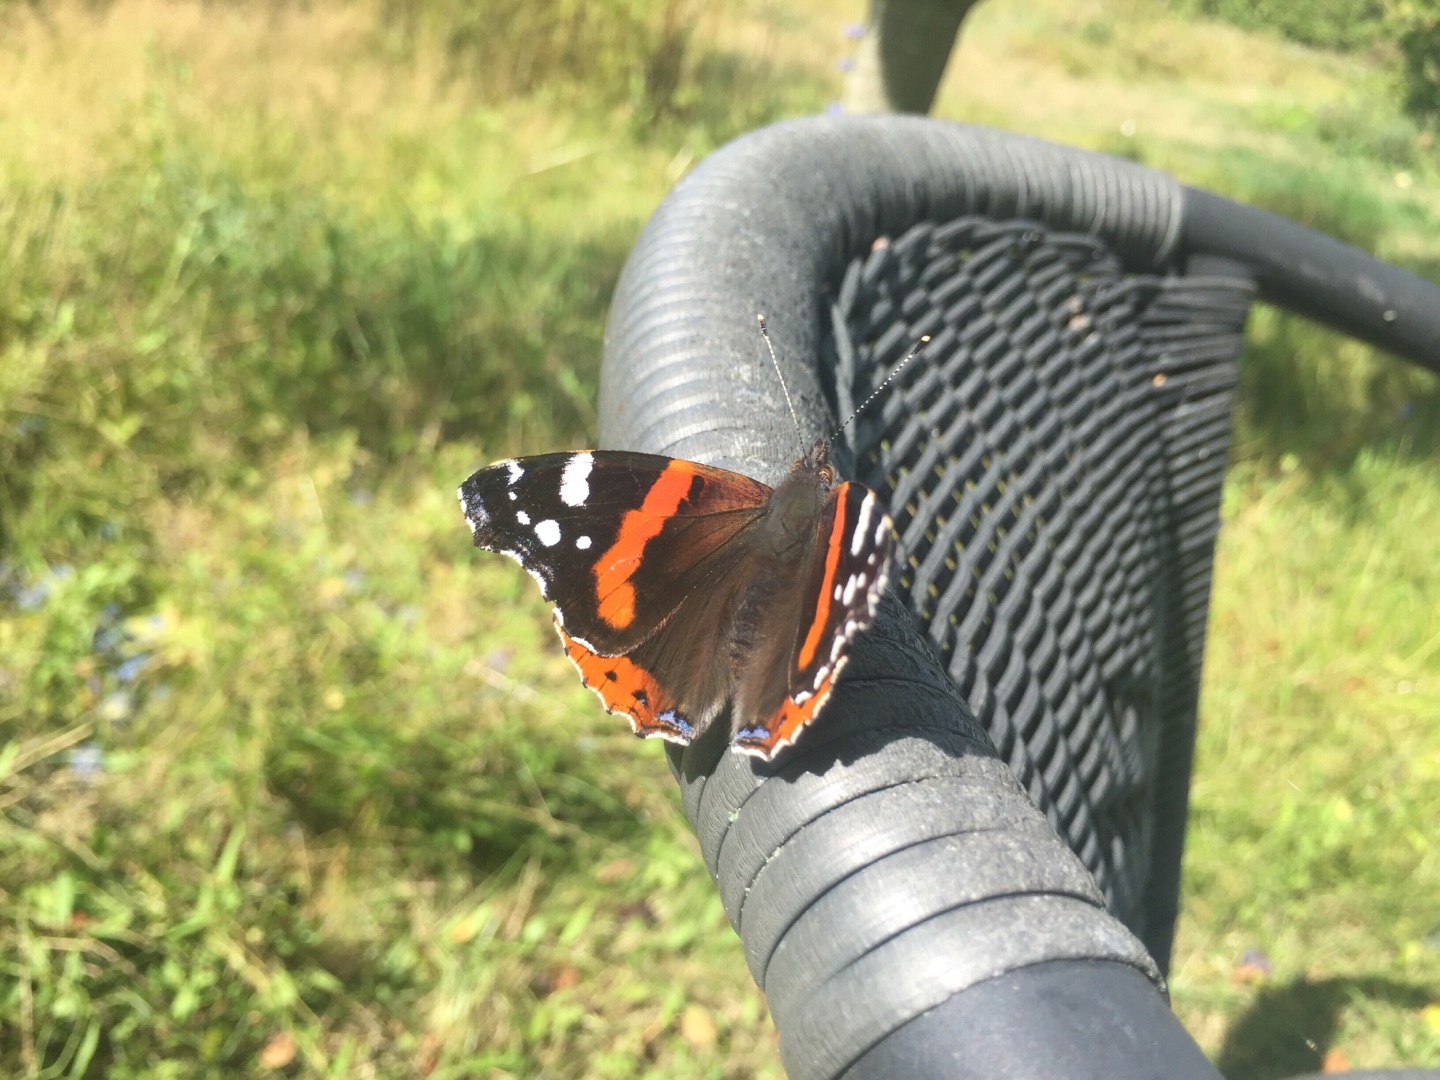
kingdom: Animalia
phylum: Arthropoda
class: Insecta
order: Lepidoptera
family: Nymphalidae
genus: Vanessa
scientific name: Vanessa atalanta
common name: Admiral
